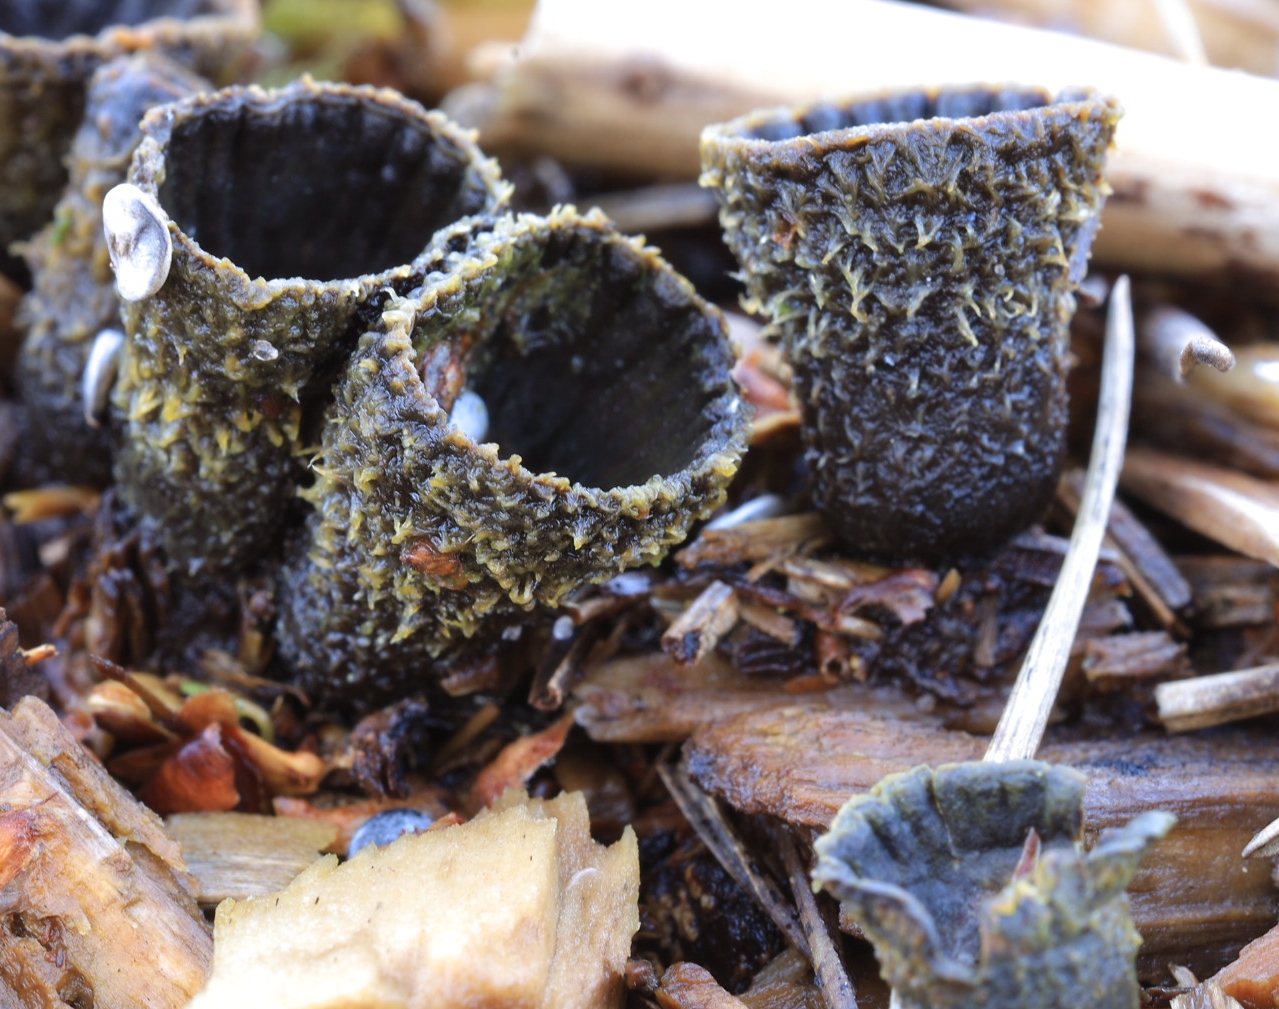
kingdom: Fungi
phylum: Basidiomycota
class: Agaricomycetes
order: Agaricales
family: Agaricaceae
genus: Cyathus
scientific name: Cyathus striatus
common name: stribet redesvamp
